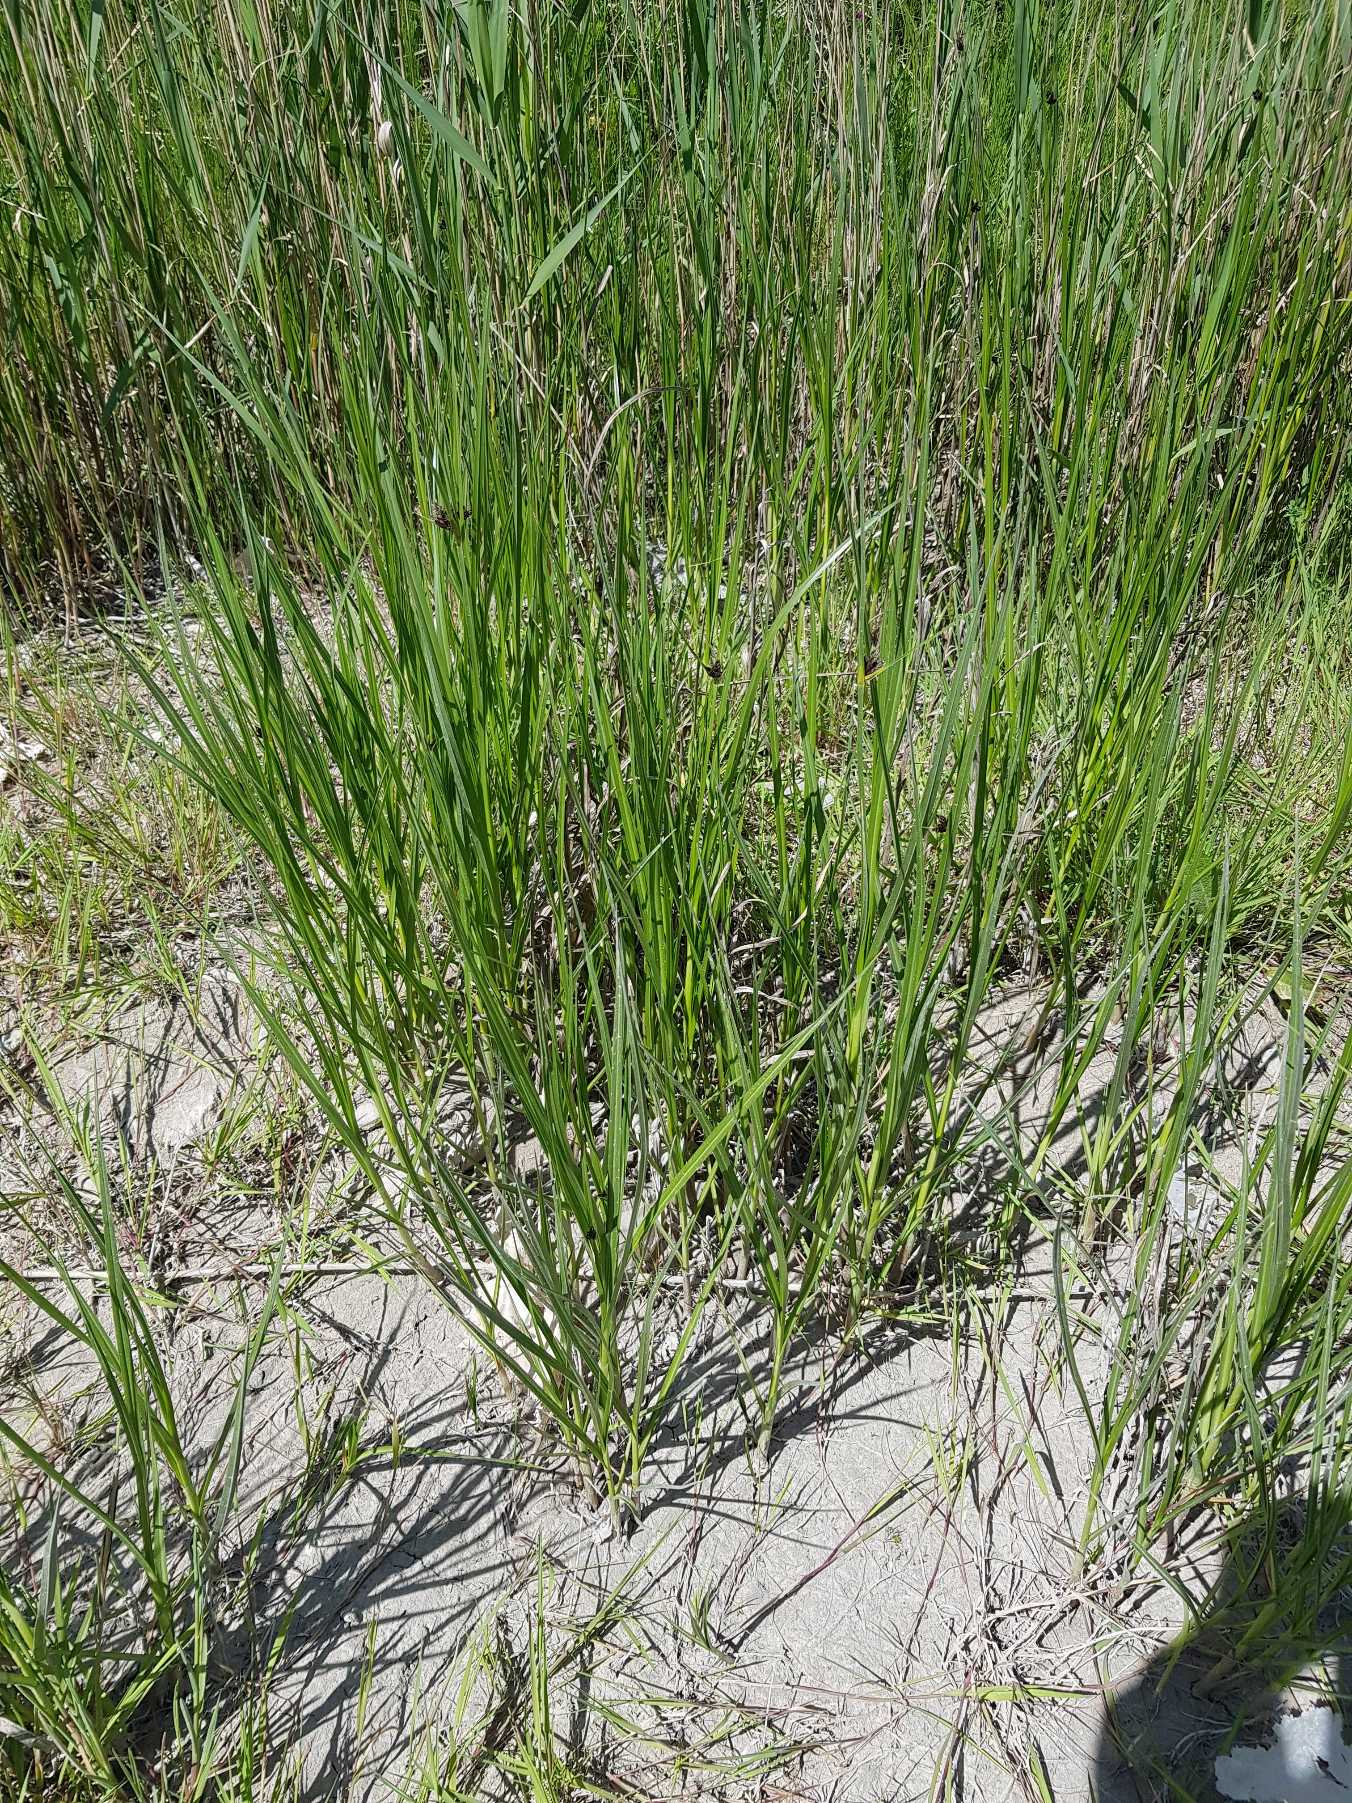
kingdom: Plantae
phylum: Tracheophyta
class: Liliopsida
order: Poales
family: Cyperaceae
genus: Bolboschoenus
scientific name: Bolboschoenus maritimus
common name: Strand-kogleaks
